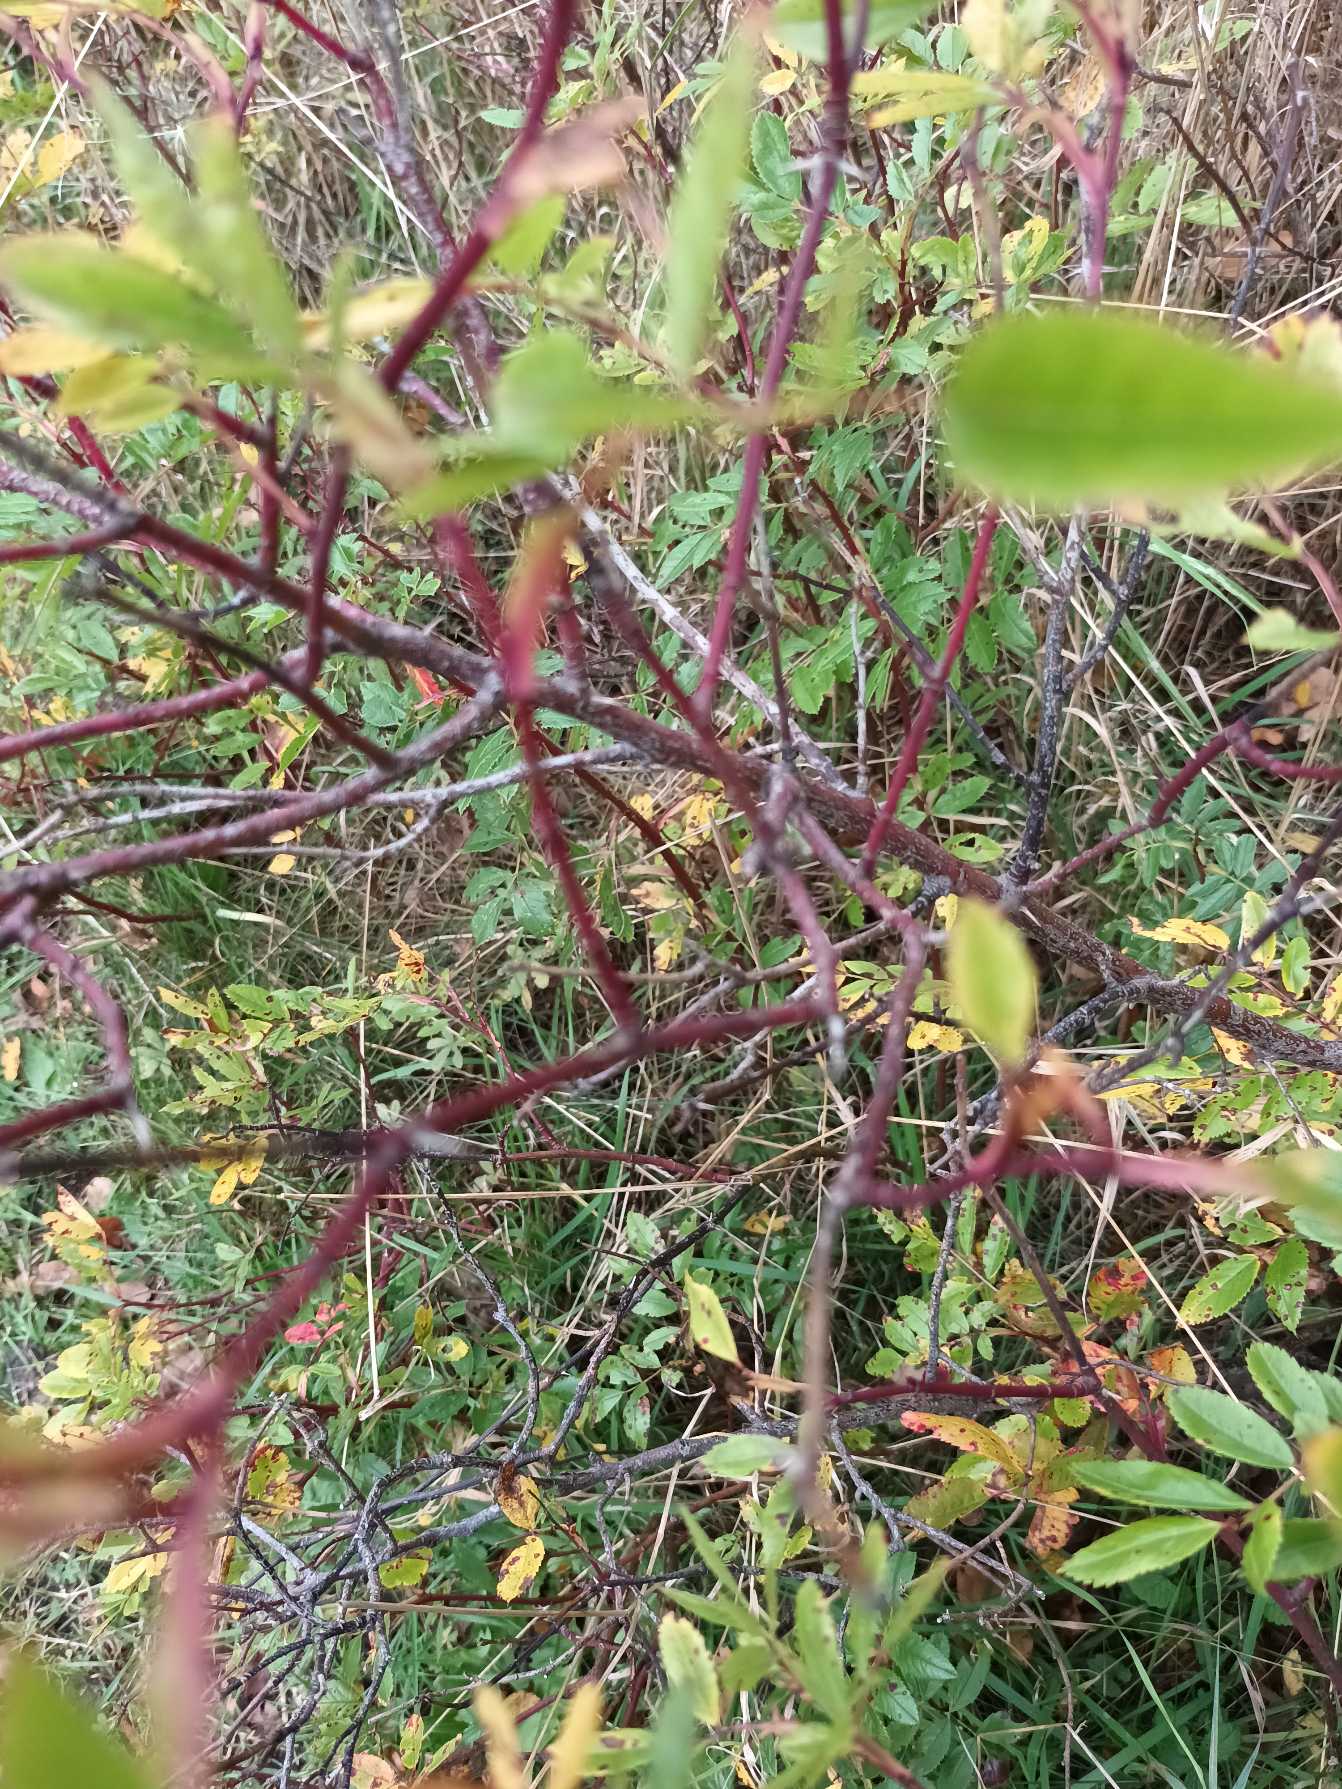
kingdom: Plantae
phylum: Tracheophyta
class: Magnoliopsida
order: Rosales
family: Rosaceae
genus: Rosa
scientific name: Rosa carolina
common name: Glansbladet rose
